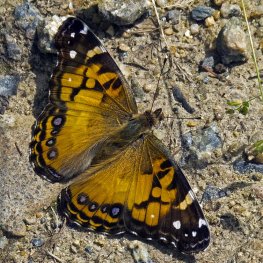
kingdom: Animalia
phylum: Arthropoda
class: Insecta
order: Lepidoptera
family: Nymphalidae
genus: Vanessa
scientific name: Vanessa virginiensis
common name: American Lady
